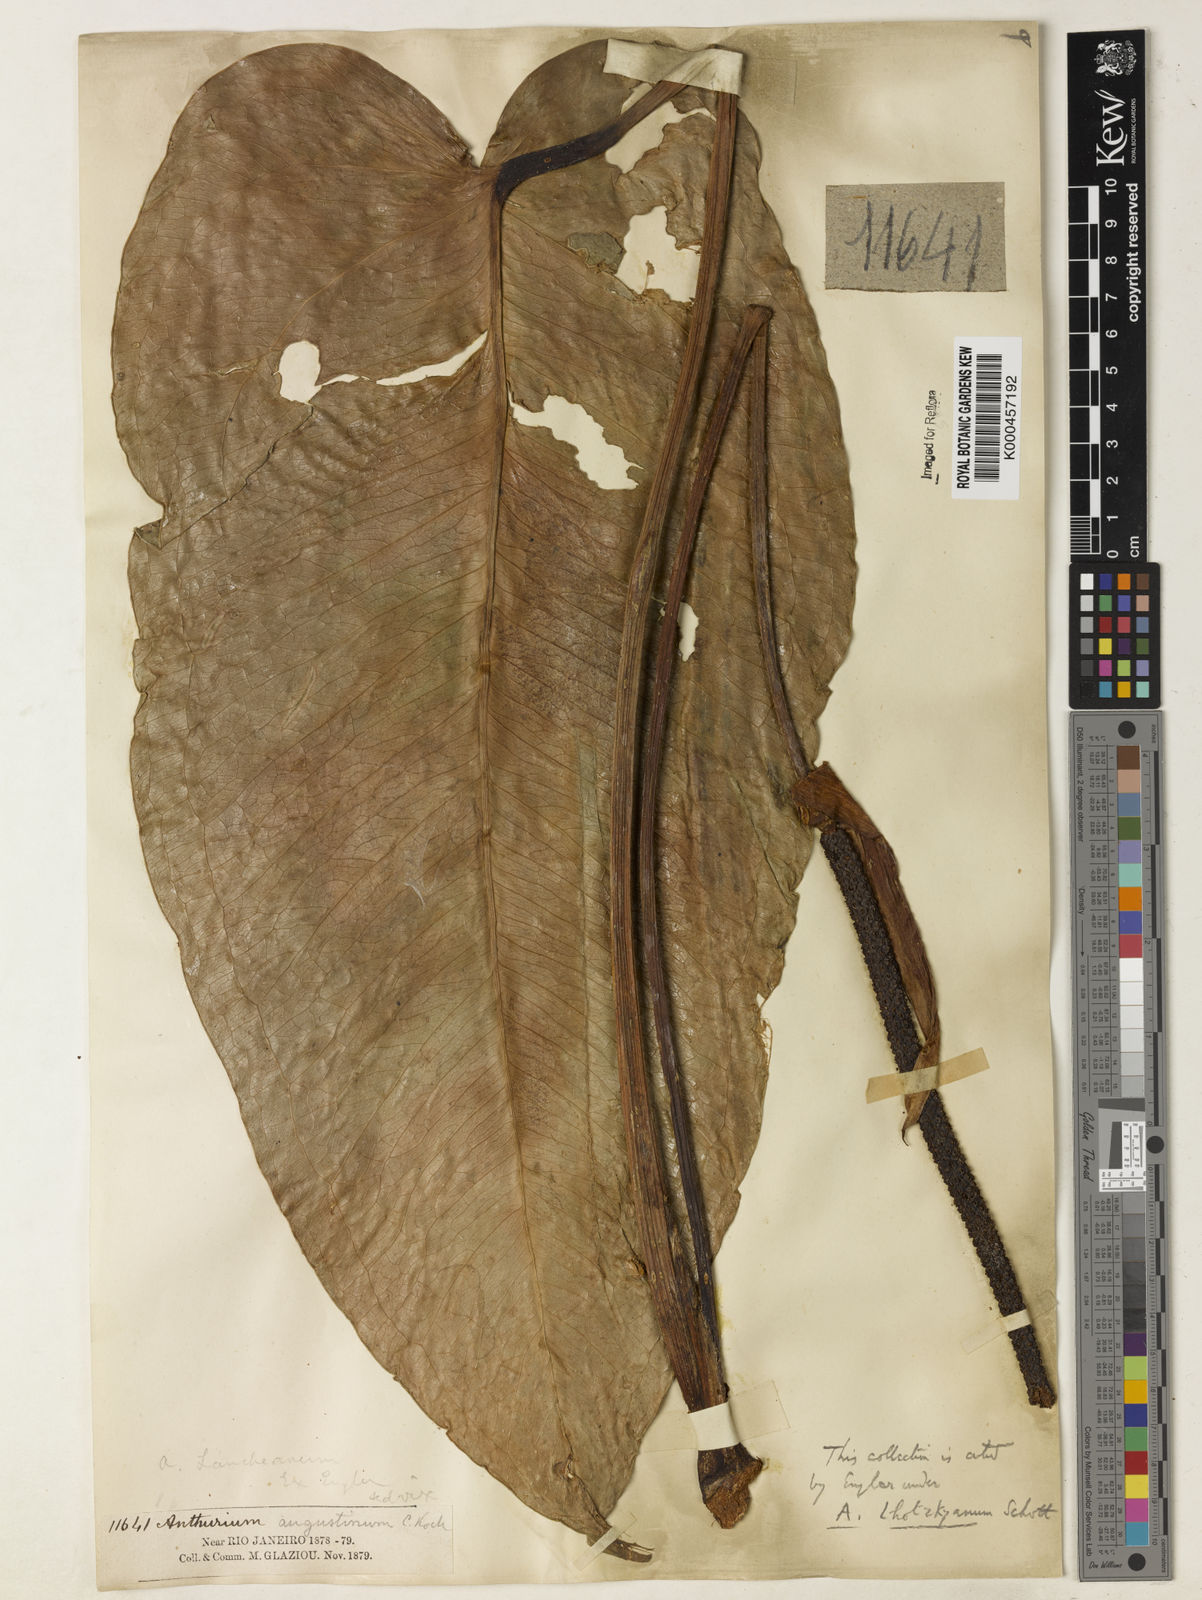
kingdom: Plantae
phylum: Tracheophyta
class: Liliopsida
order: Alismatales
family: Araceae
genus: Anthurium
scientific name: Anthurium augustinum
